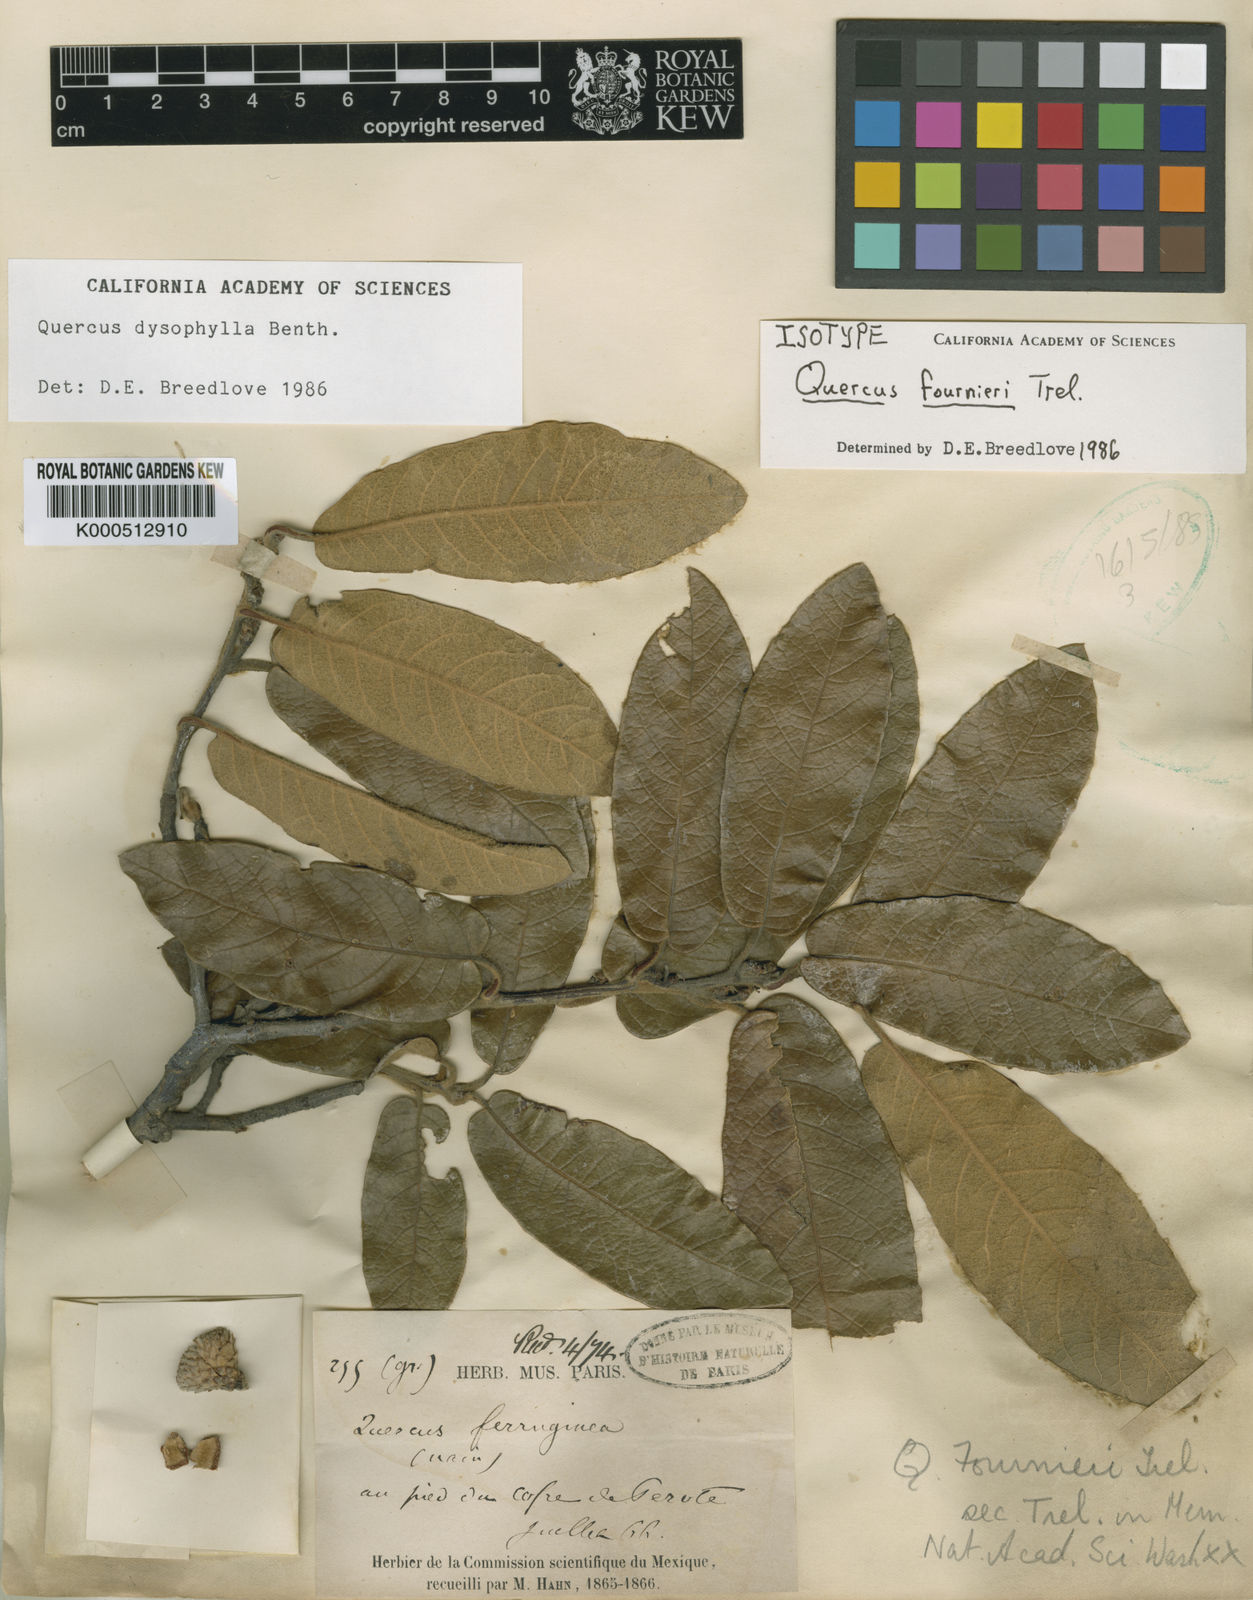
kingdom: Plantae
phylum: Tracheophyta
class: Magnoliopsida
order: Fagales
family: Fagaceae
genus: Quercus
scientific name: Quercus dysophylla
